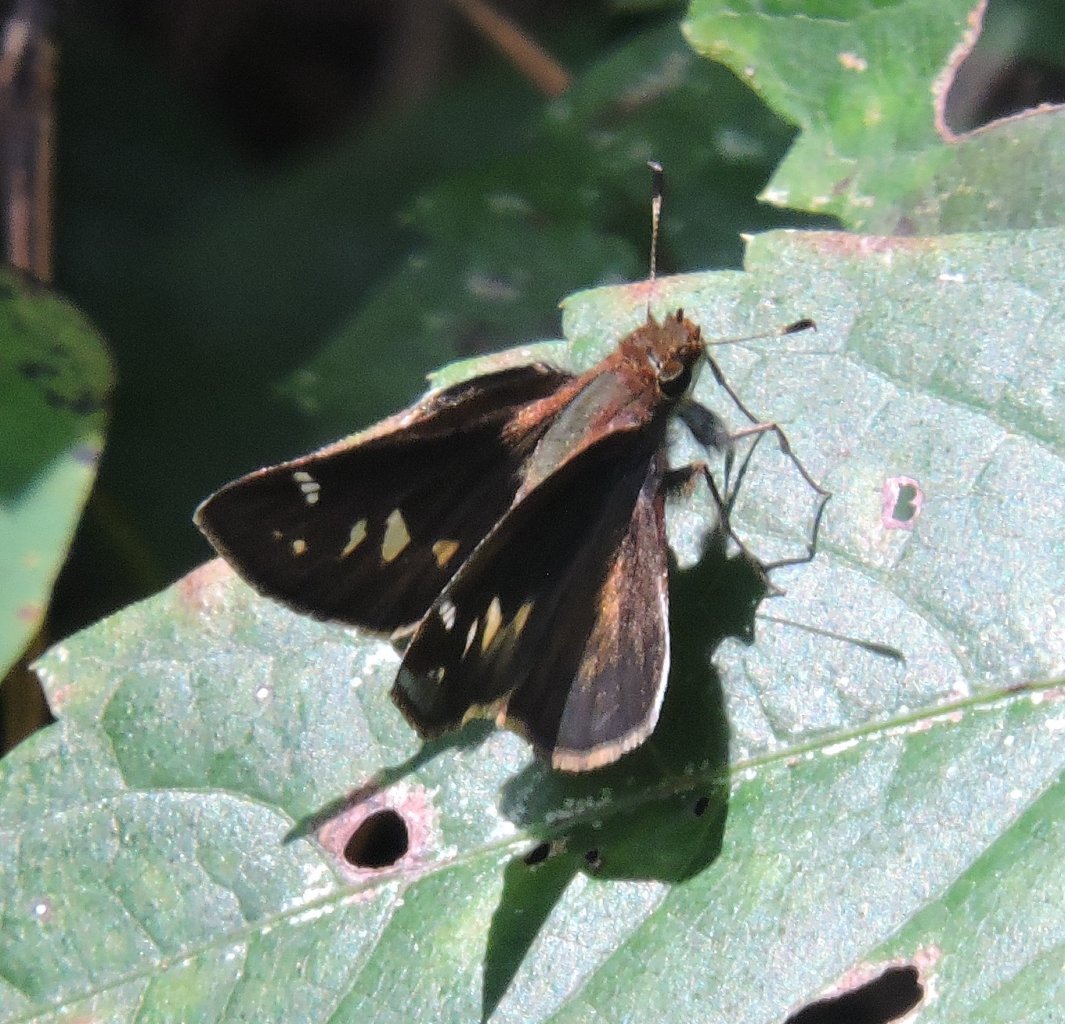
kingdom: Animalia
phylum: Arthropoda
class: Insecta
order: Lepidoptera
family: Hesperiidae
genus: Lon
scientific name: Lon zabulon
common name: Zabulon Skipper
